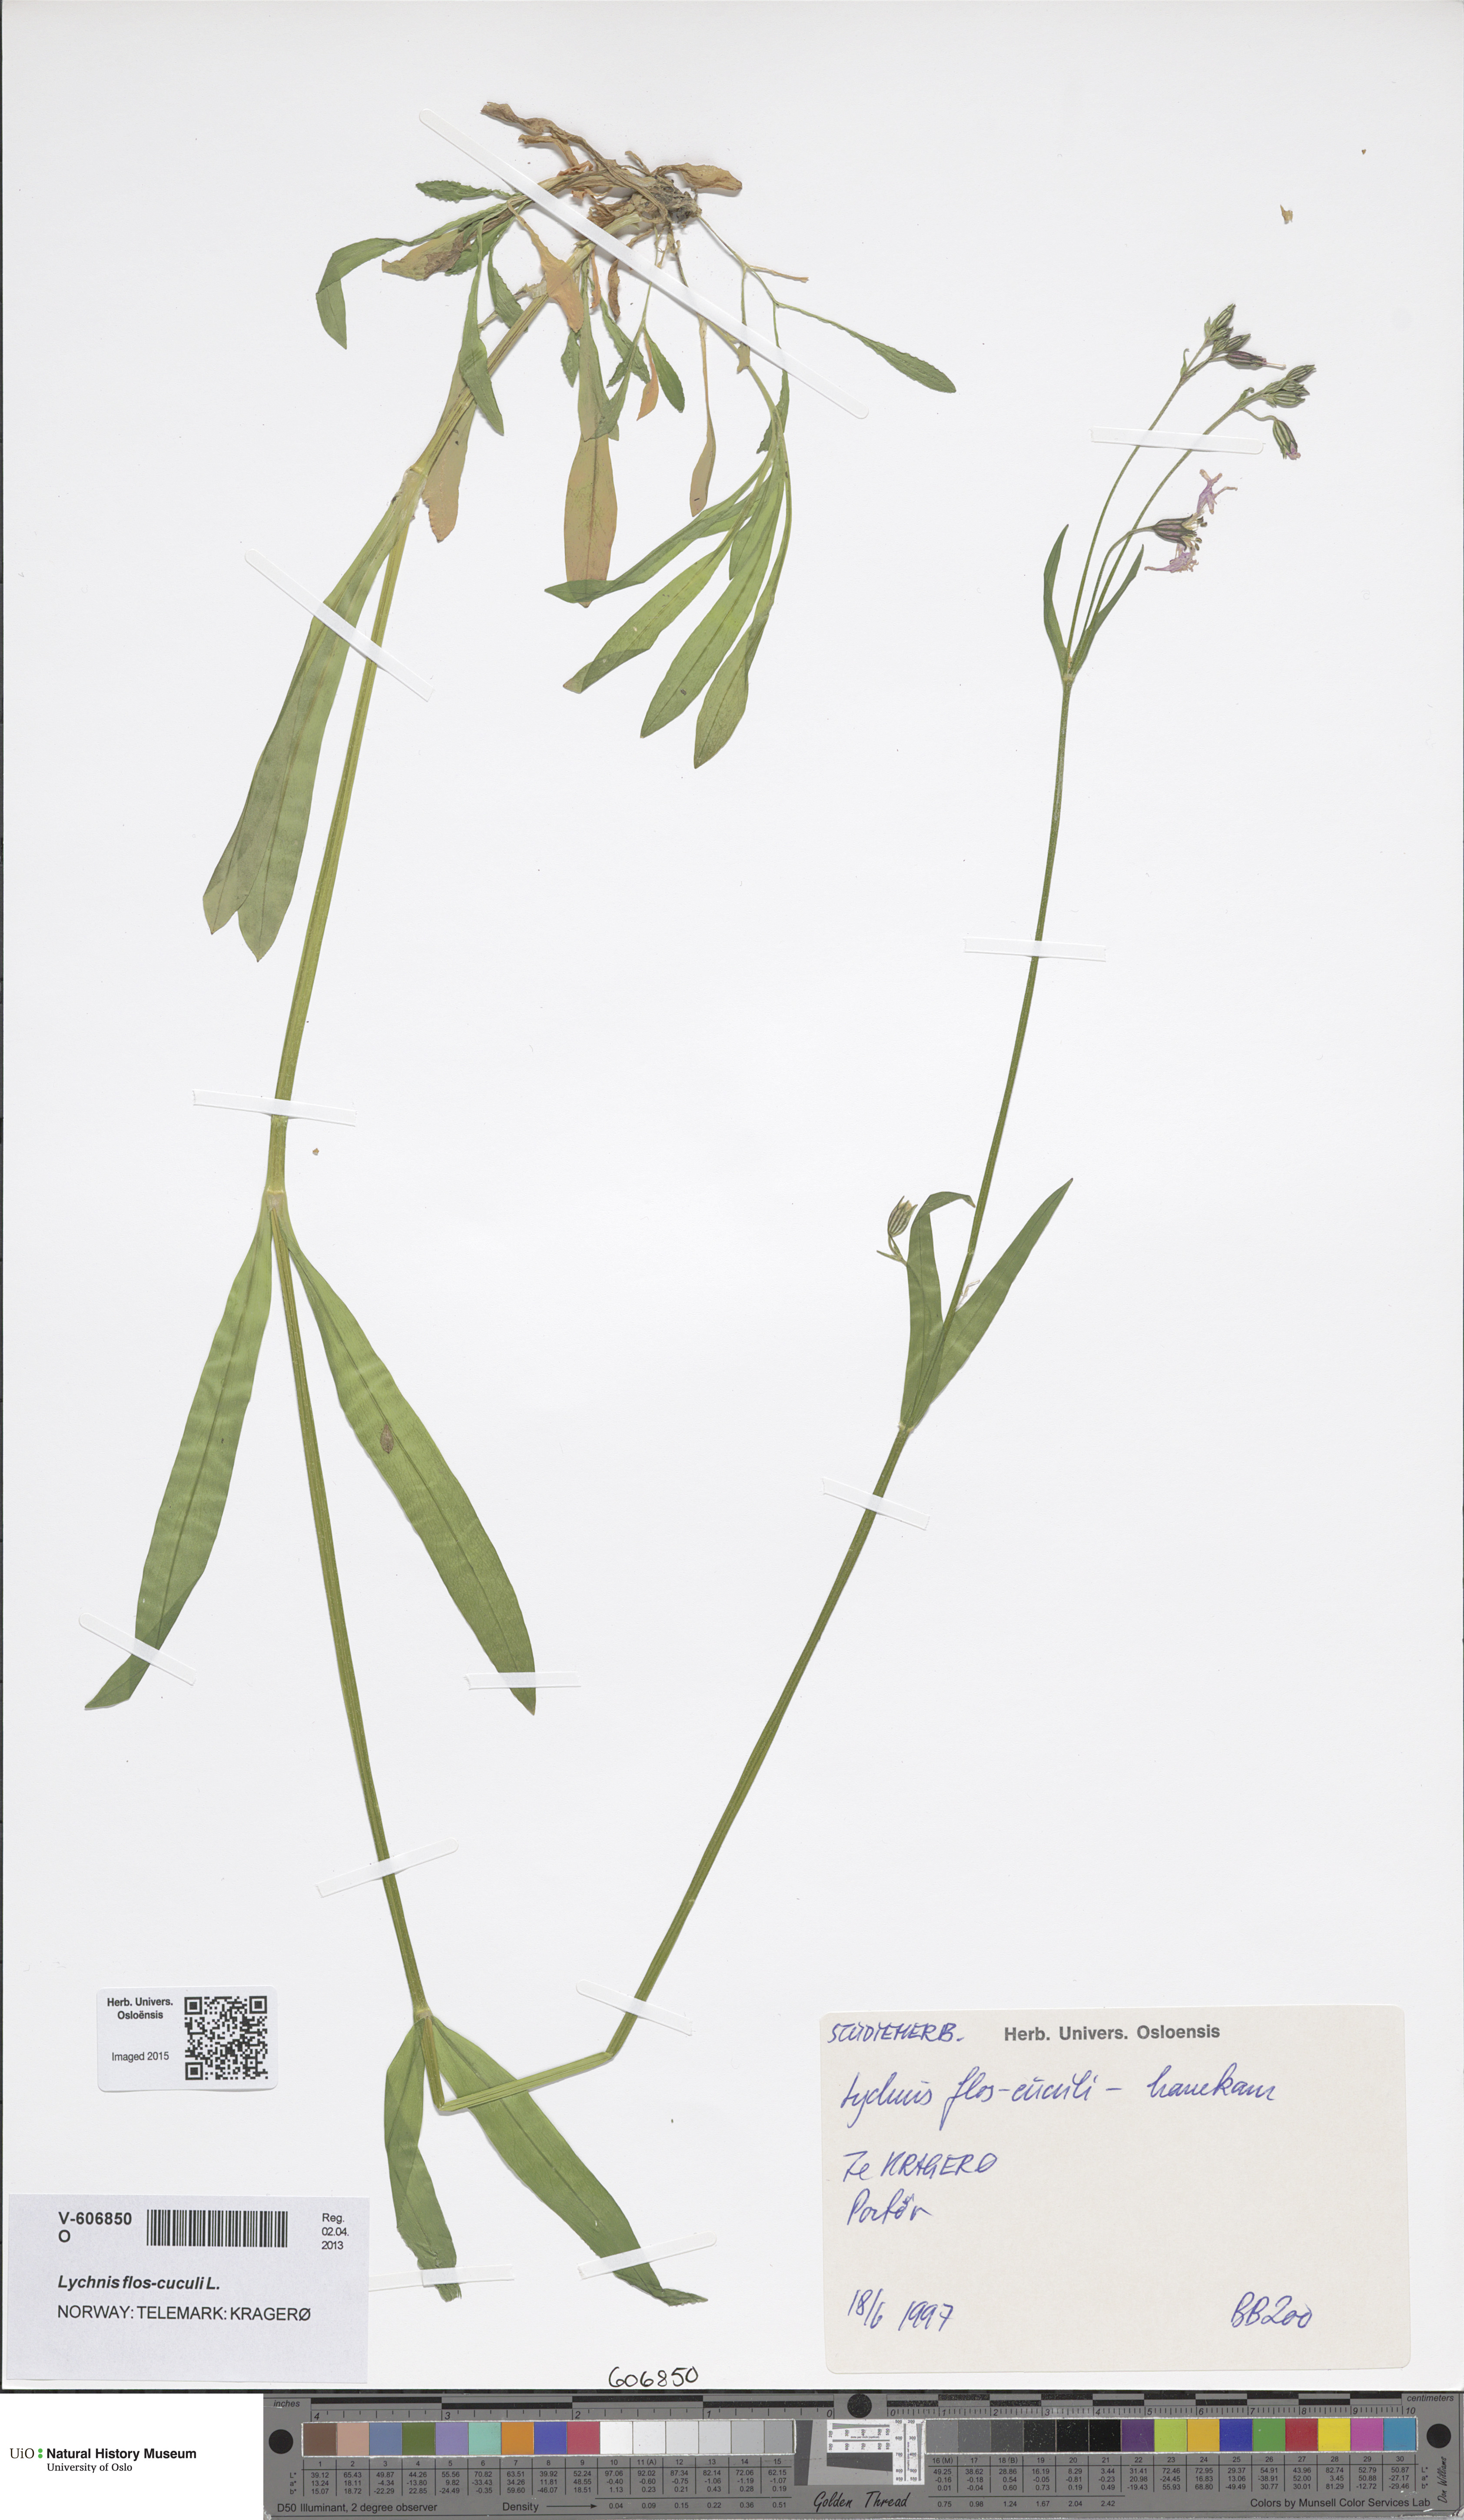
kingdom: Plantae
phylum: Tracheophyta
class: Magnoliopsida
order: Caryophyllales
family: Caryophyllaceae
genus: Silene
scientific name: Silene flos-cuculi
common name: Ragged-robin
